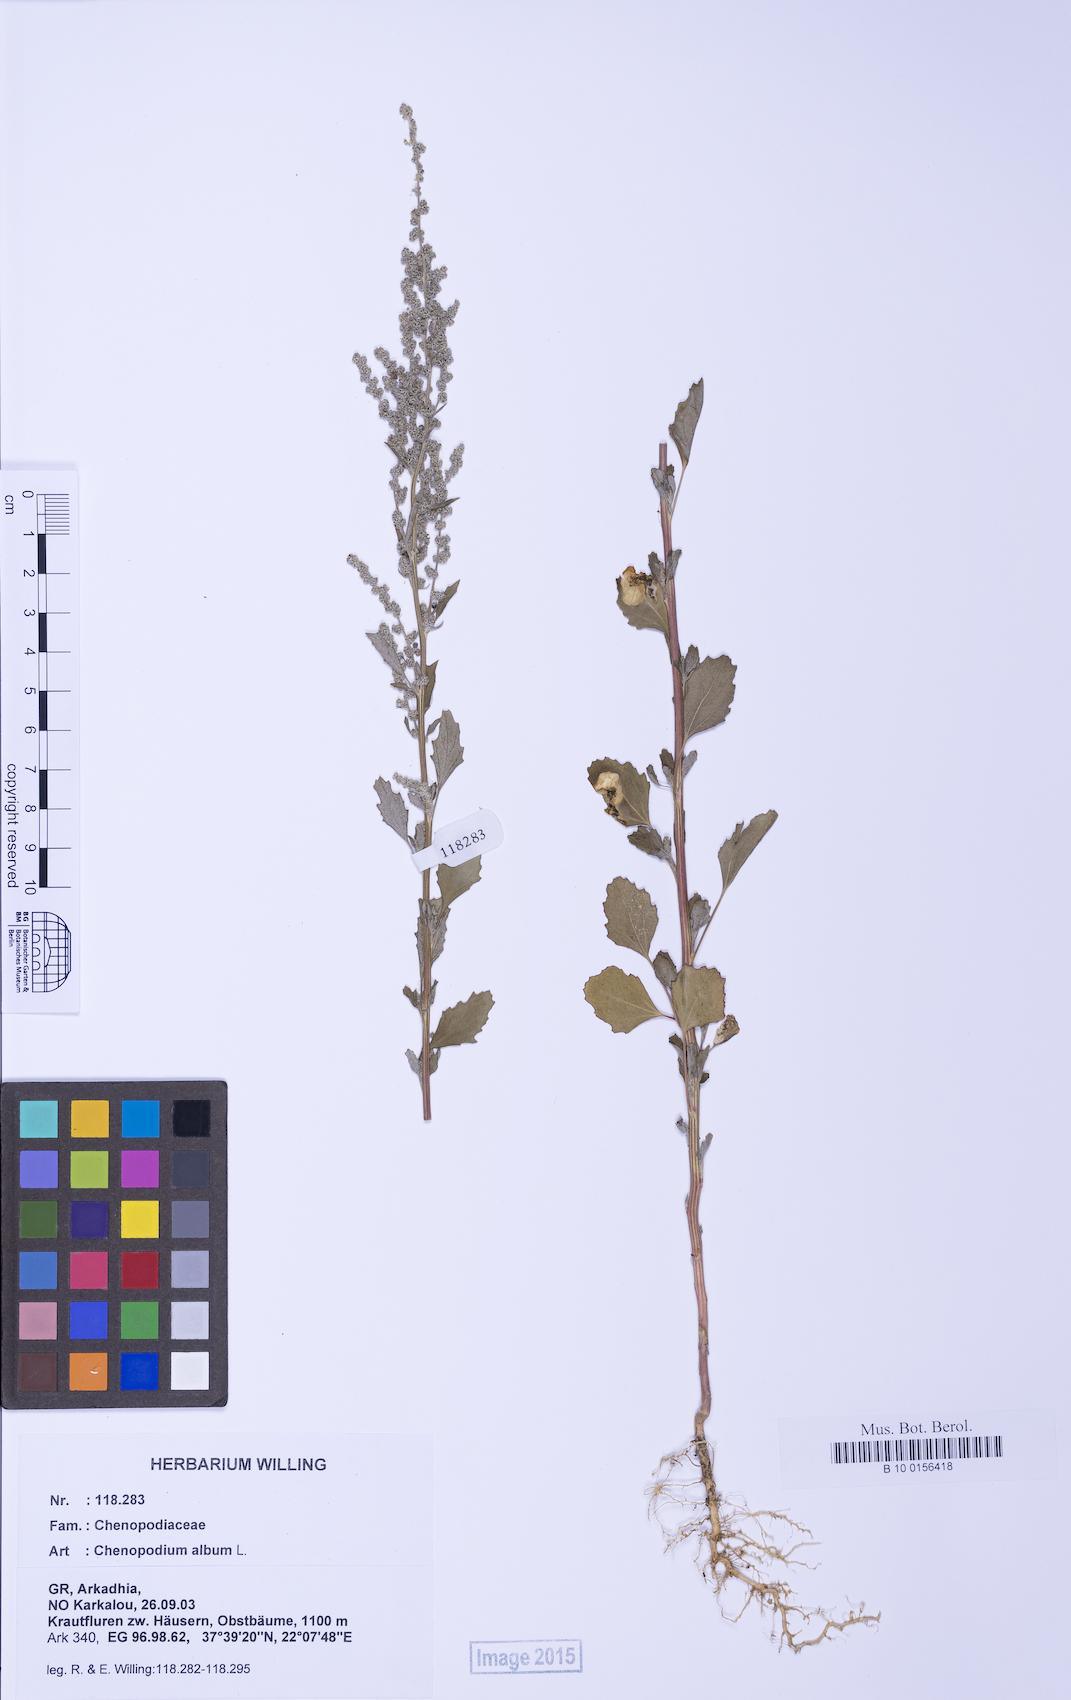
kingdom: Plantae
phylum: Tracheophyta
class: Magnoliopsida
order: Caryophyllales
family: Amaranthaceae
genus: Chenopodium
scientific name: Chenopodium album
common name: Fat-hen
